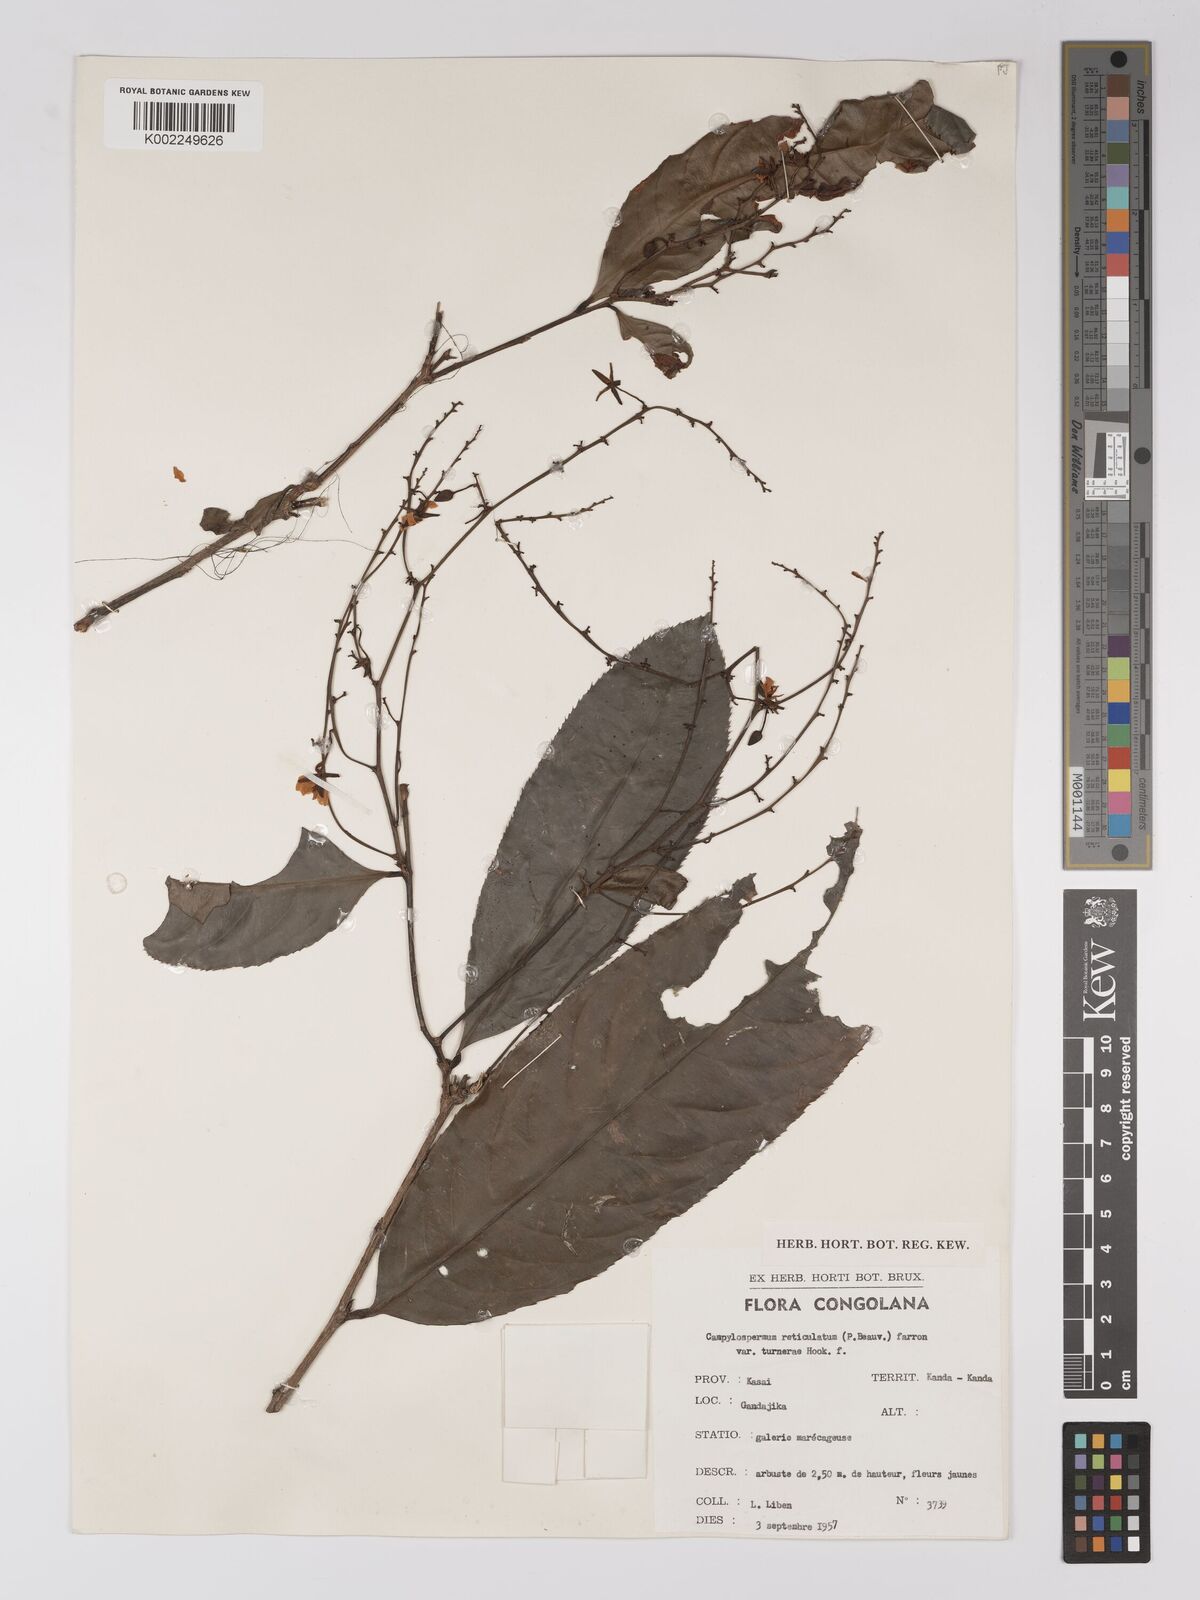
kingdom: Plantae
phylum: Tracheophyta
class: Magnoliopsida
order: Malpighiales
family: Ochnaceae
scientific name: Ochnaceae
